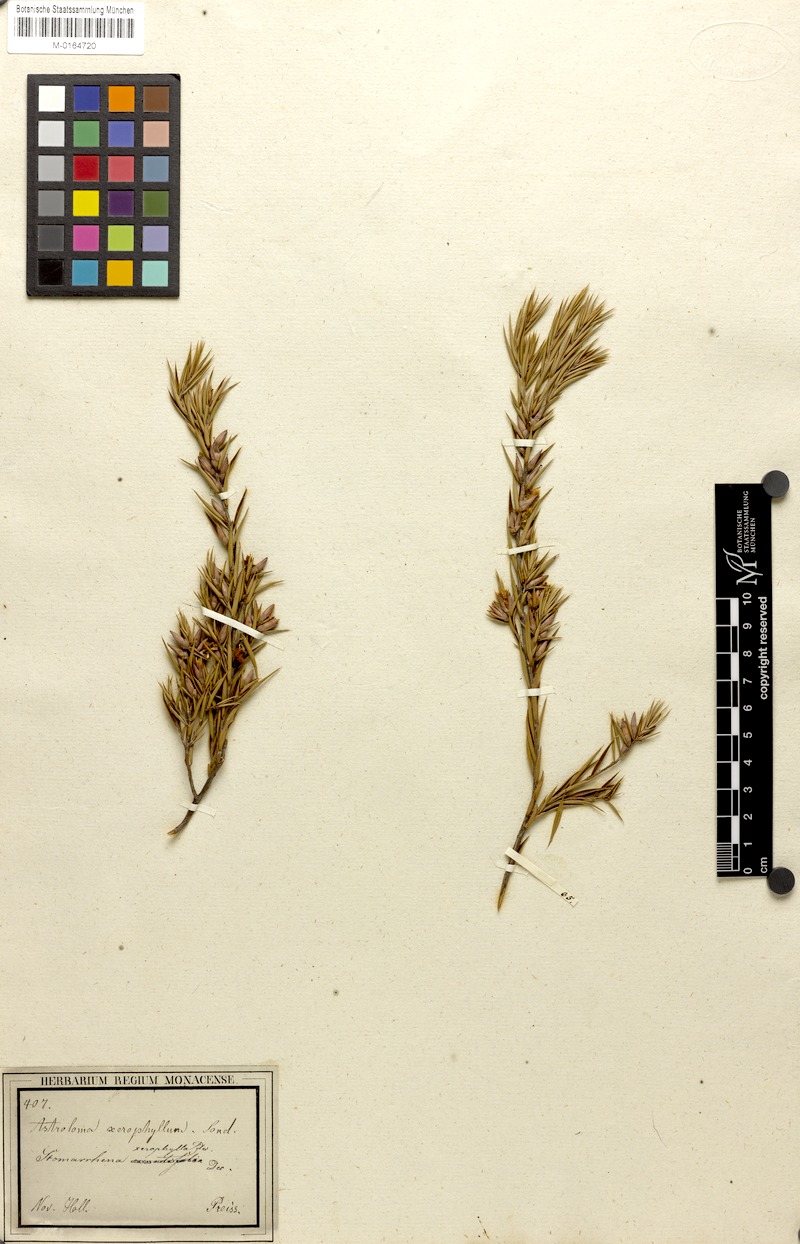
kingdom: Plantae
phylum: Tracheophyta
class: Magnoliopsida
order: Ericales
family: Ericaceae
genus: Styphelia
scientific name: Styphelia xerophylla
